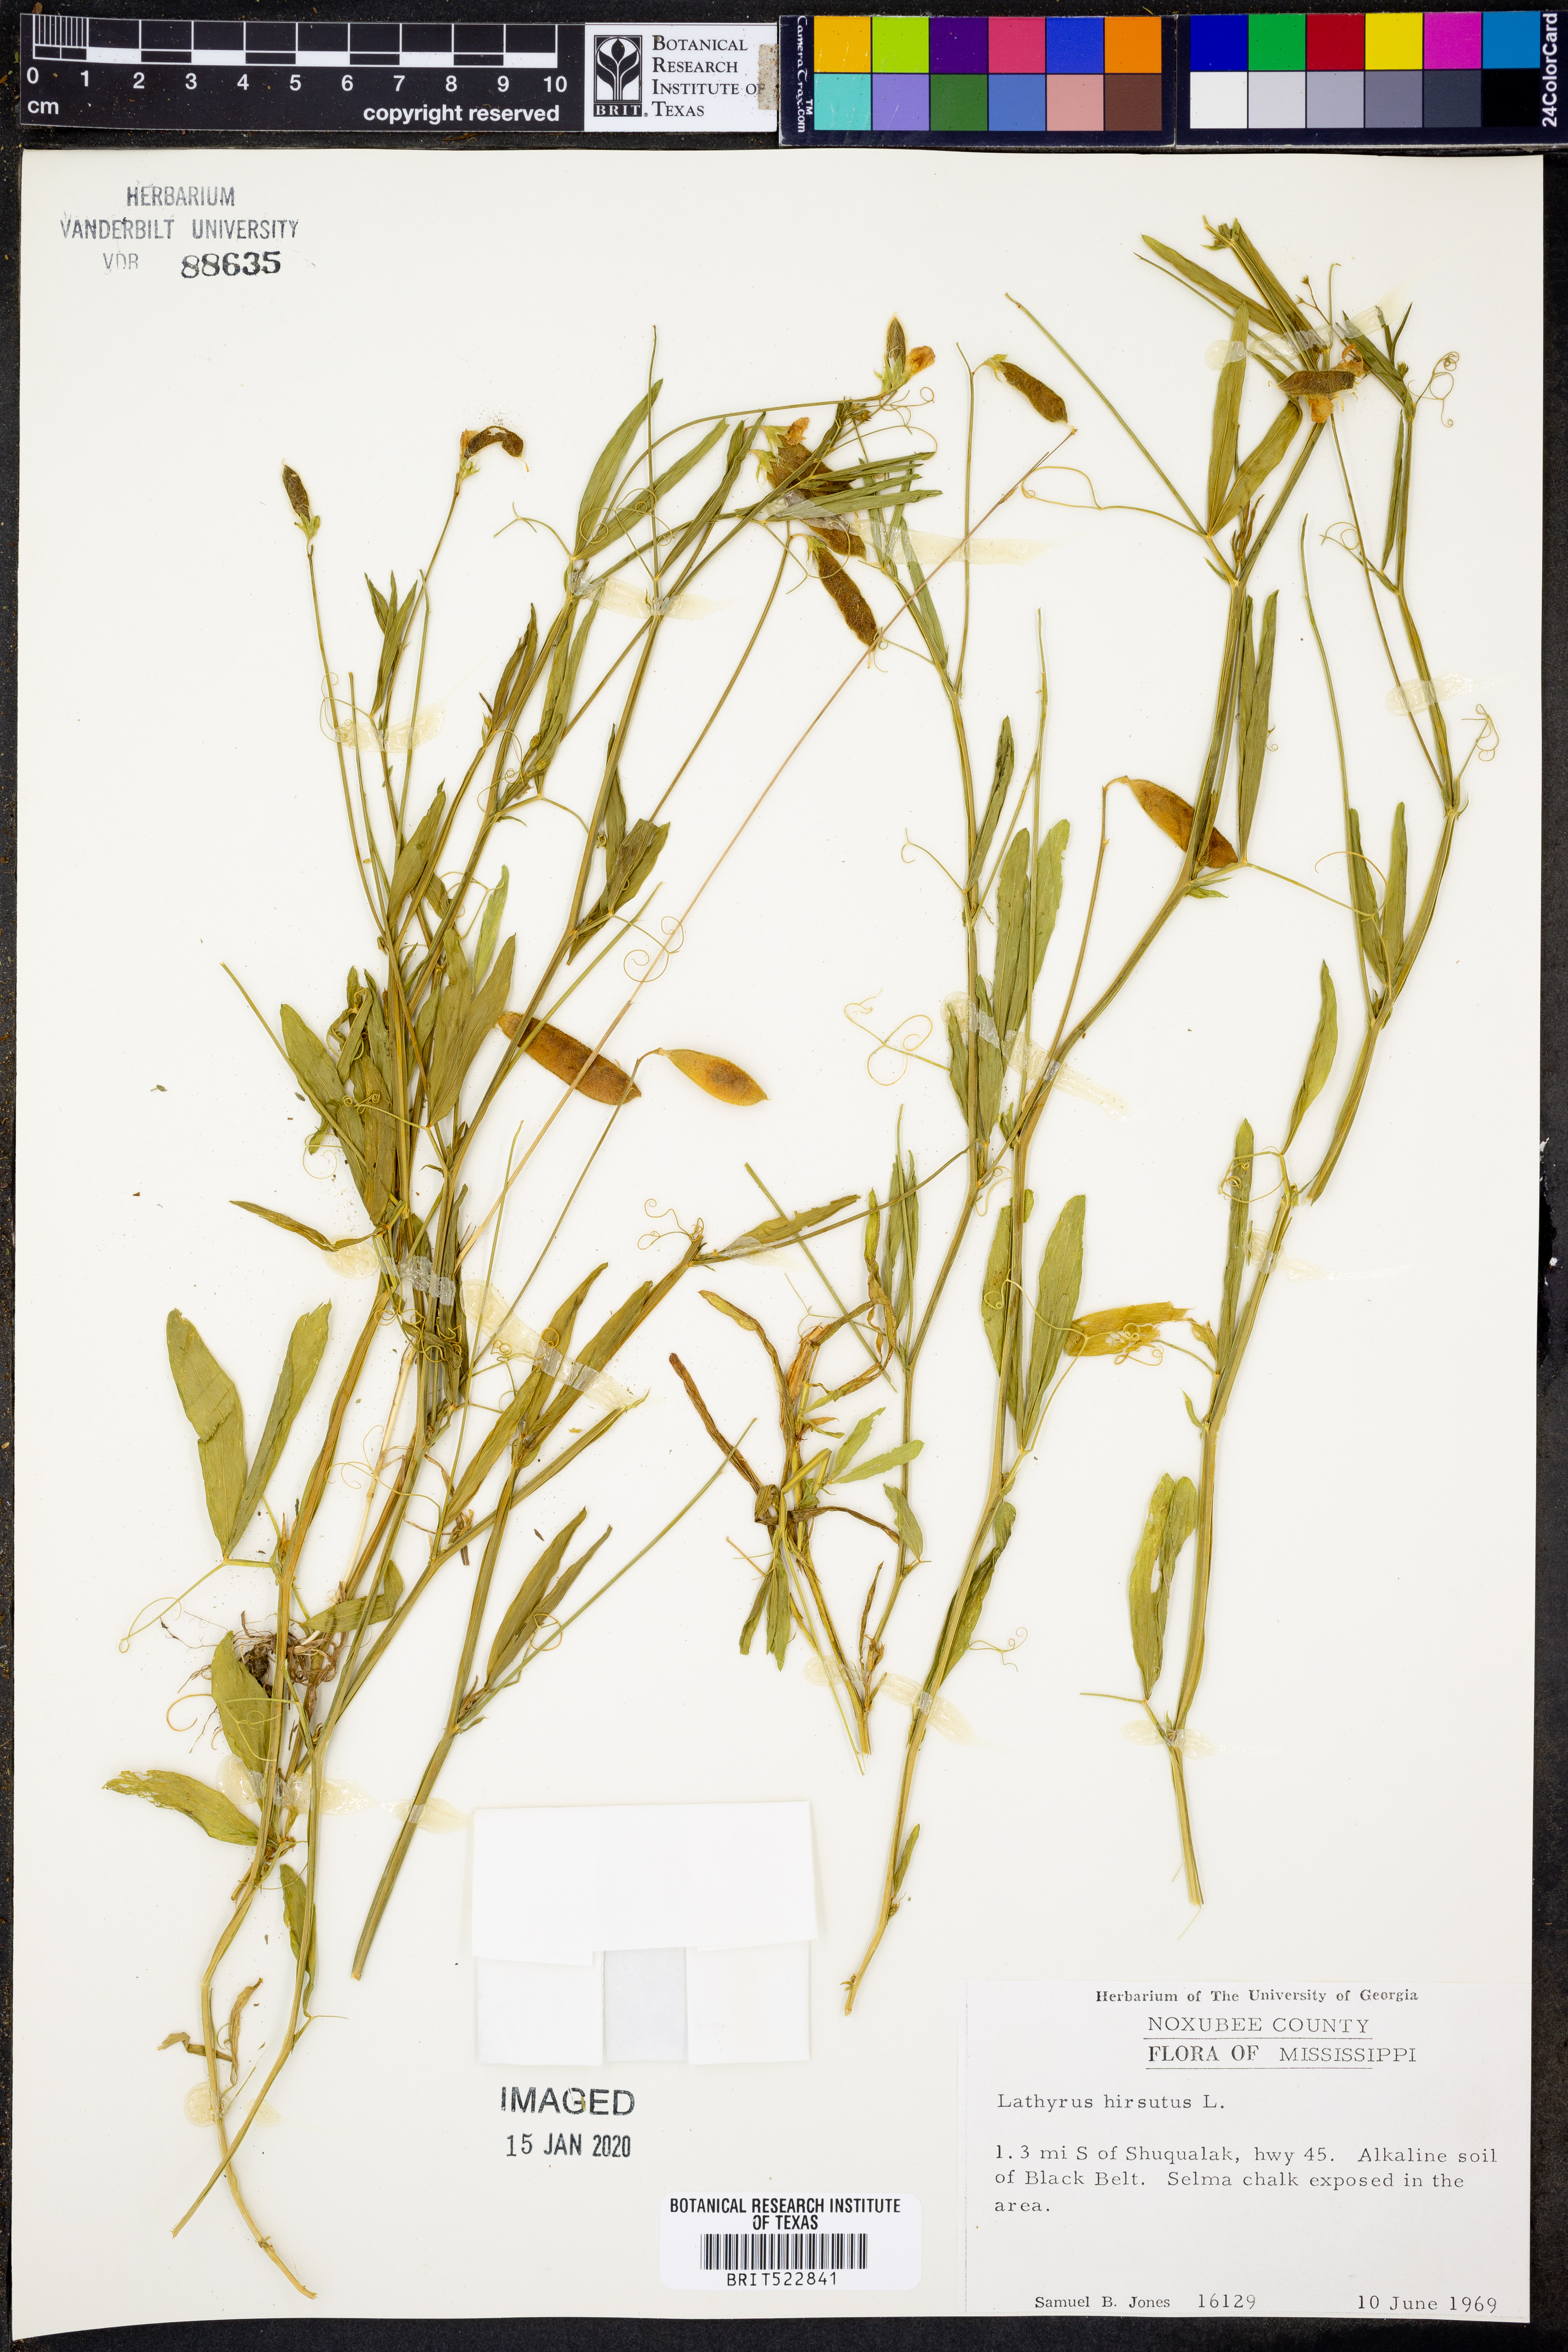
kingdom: Plantae
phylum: Tracheophyta
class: Magnoliopsida
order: Fabales
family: Fabaceae
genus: Lathyrus
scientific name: Lathyrus hirsutus
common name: Hairy vetchling
